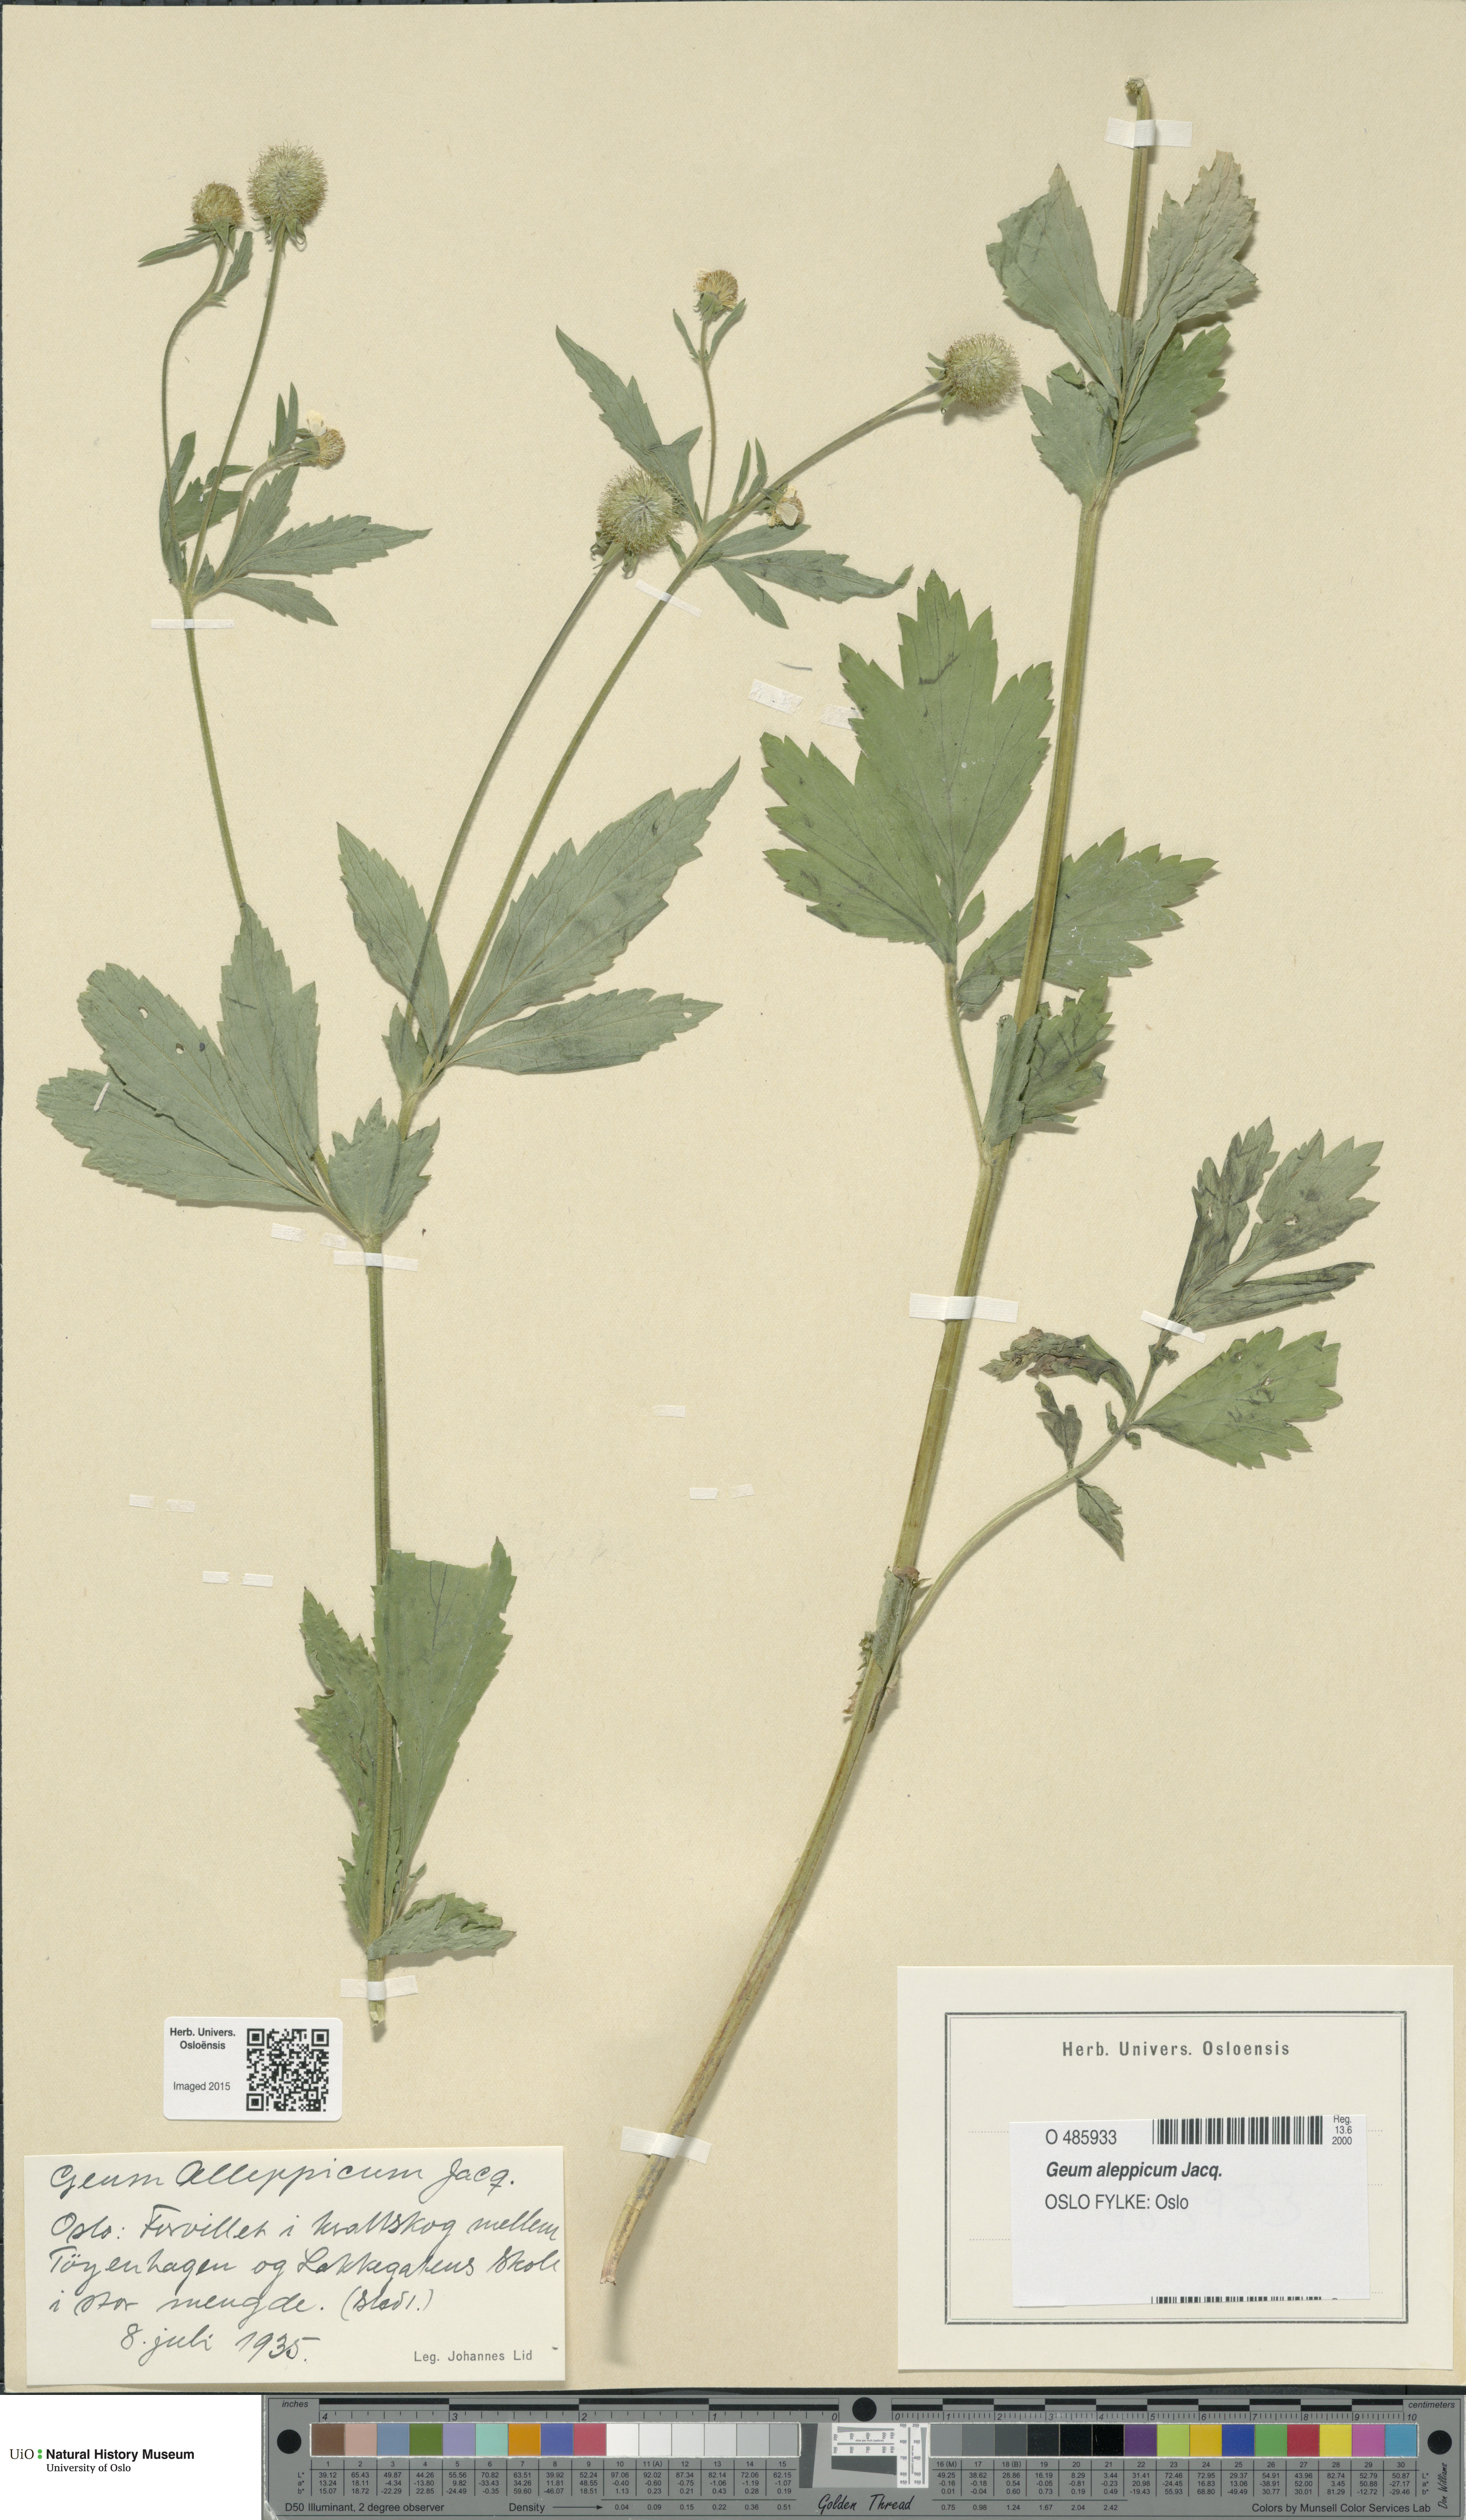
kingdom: Plantae
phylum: Tracheophyta
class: Magnoliopsida
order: Rosales
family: Rosaceae
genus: Geum
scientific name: Geum aleppicum
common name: Yellow avens
